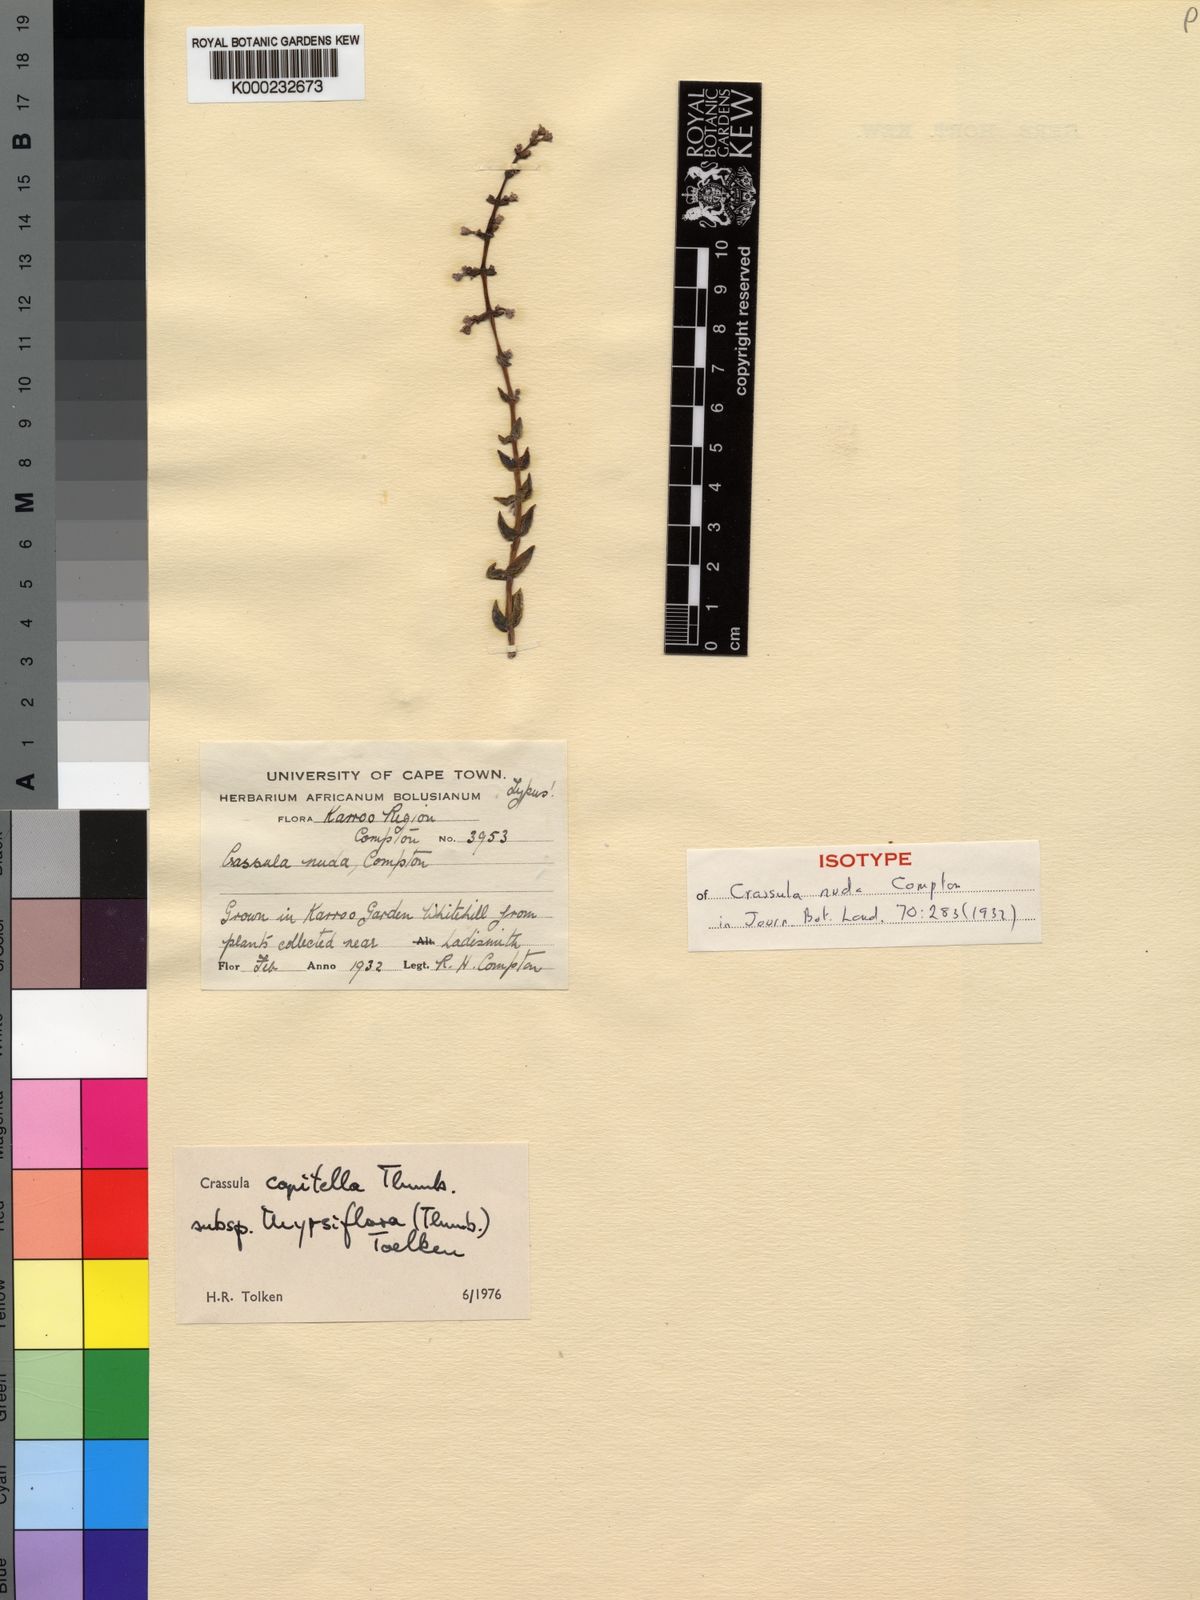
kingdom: Plantae
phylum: Tracheophyta
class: Magnoliopsida
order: Saxifragales
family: Crassulaceae
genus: Crassula
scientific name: Crassula capitella
